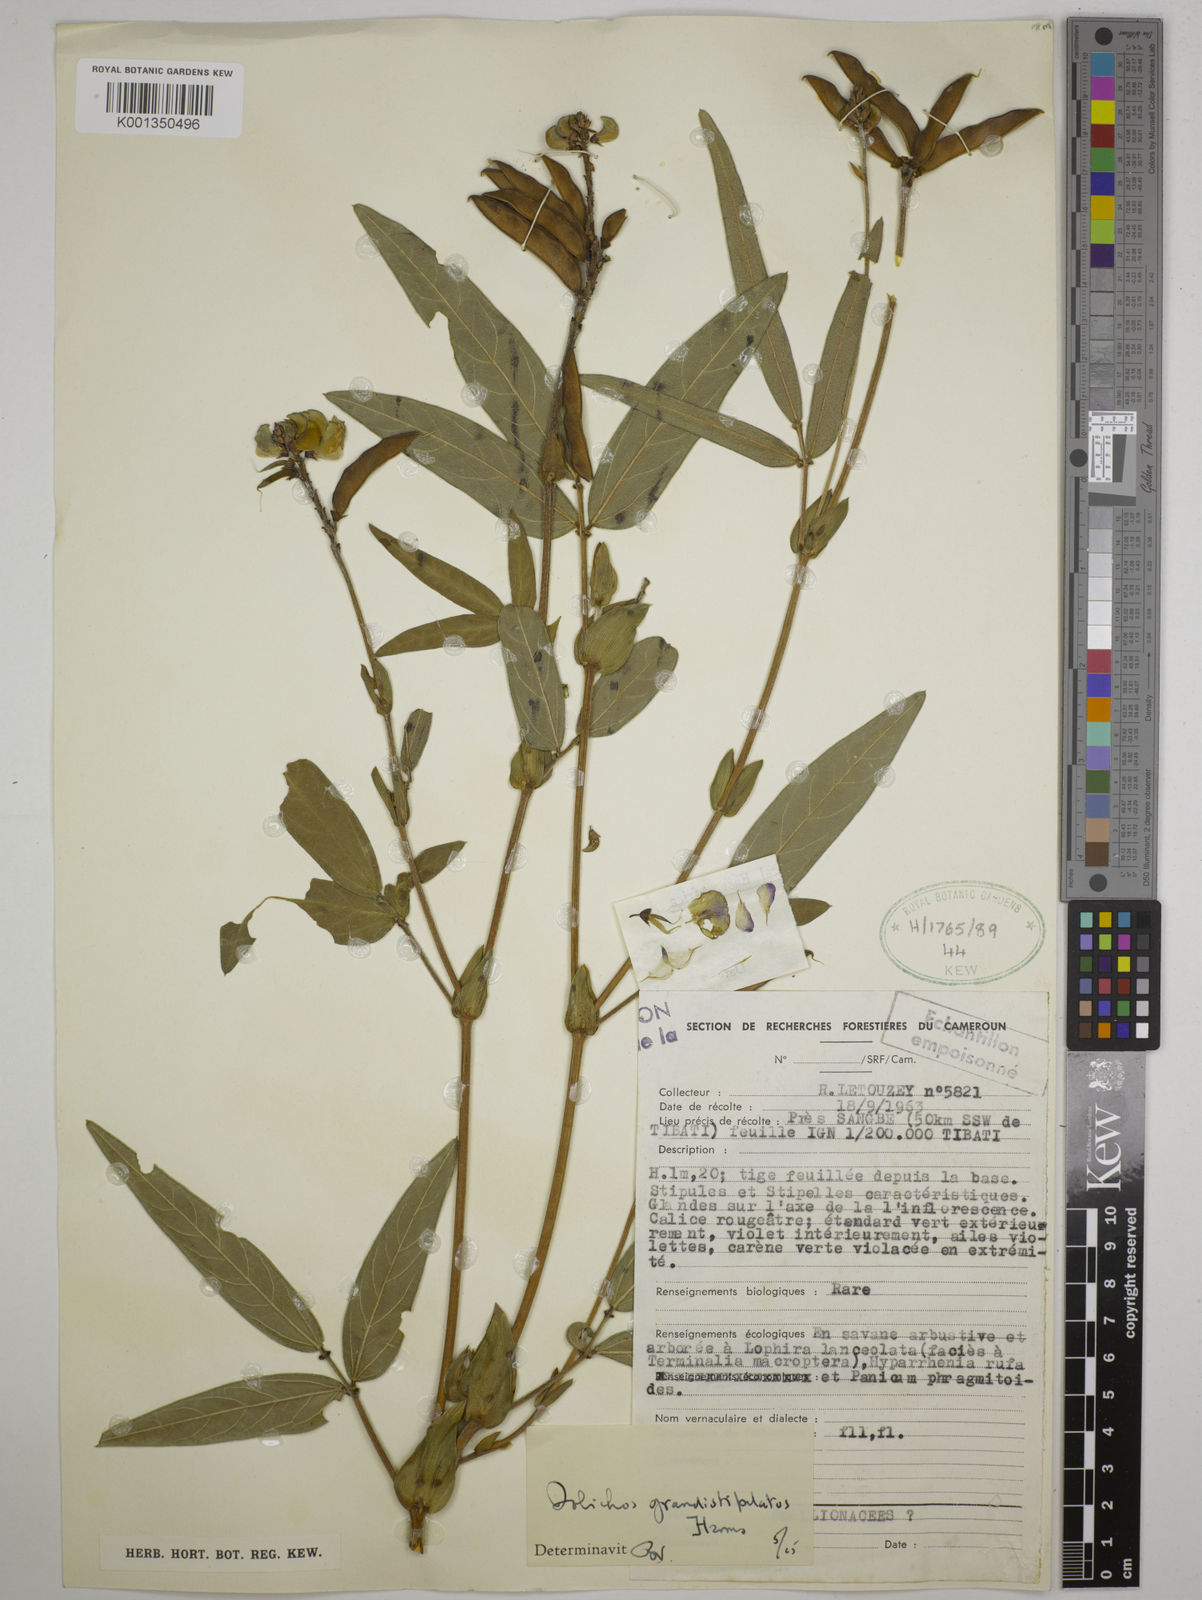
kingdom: Plantae
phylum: Tracheophyta
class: Magnoliopsida
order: Fabales
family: Fabaceae
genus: Dolichos
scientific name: Dolichos grandistipulatus
